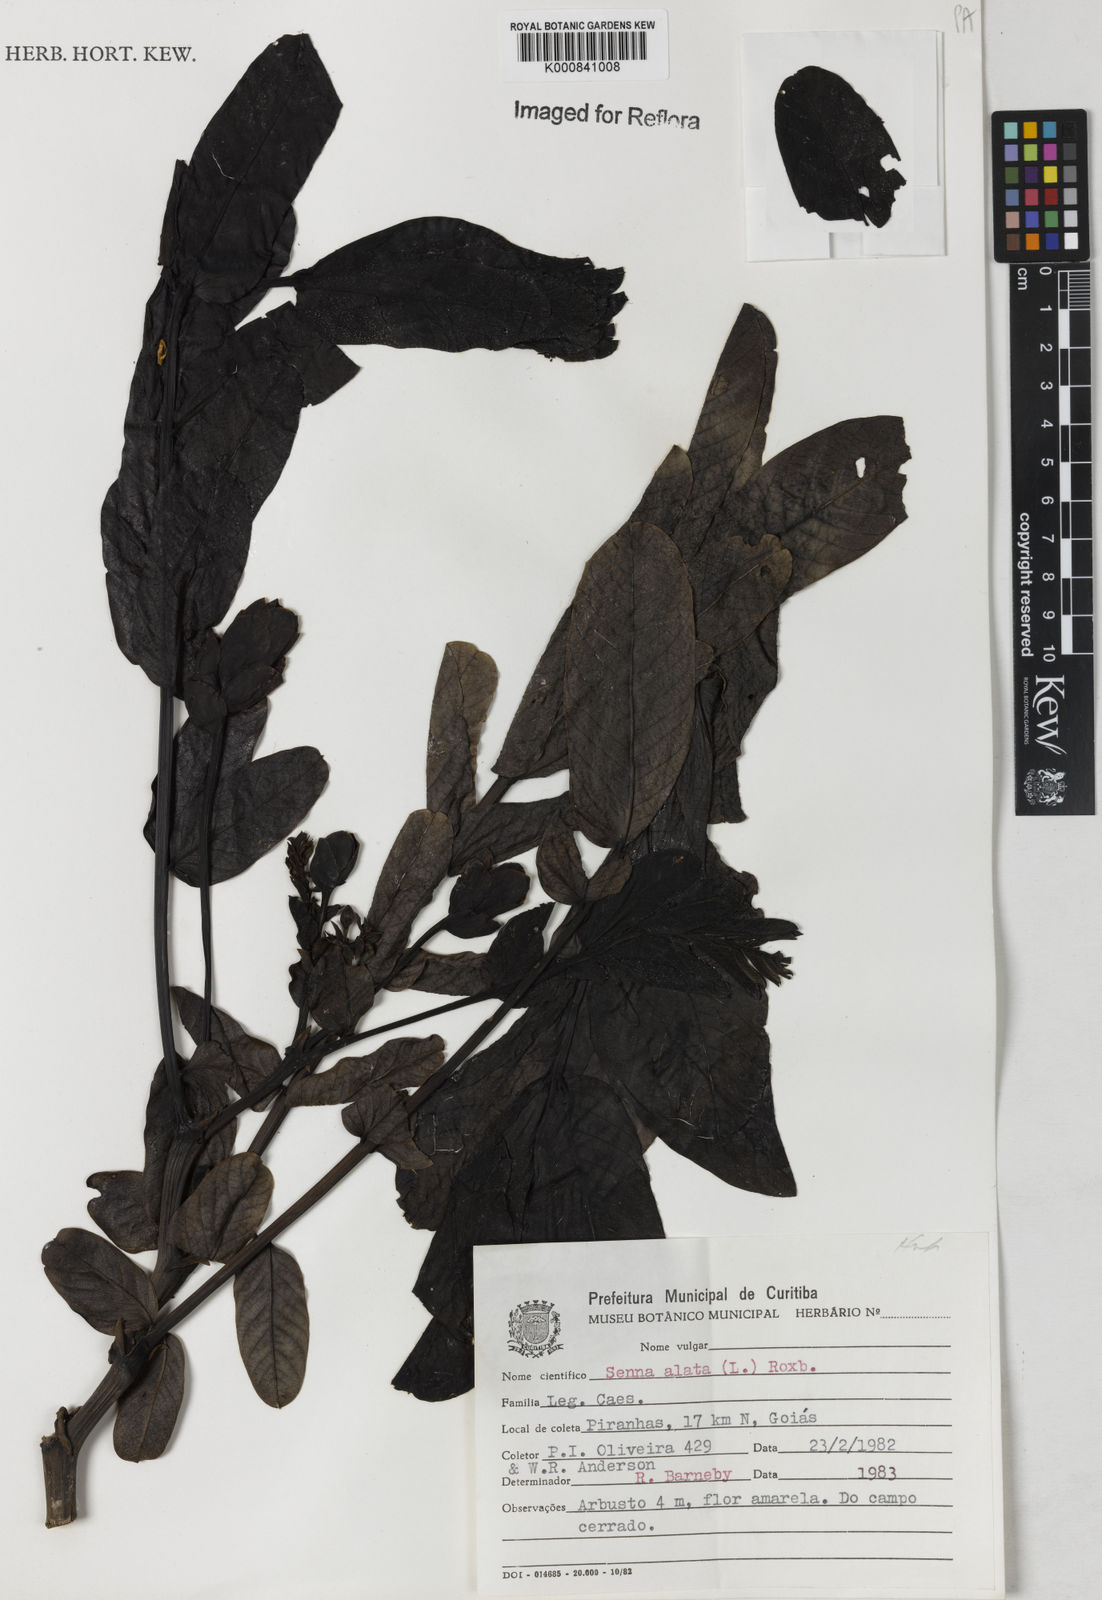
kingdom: Plantae
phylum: Tracheophyta
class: Magnoliopsida
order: Fabales
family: Fabaceae
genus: Senna
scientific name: Senna alata
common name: Emperor's candlesticks
